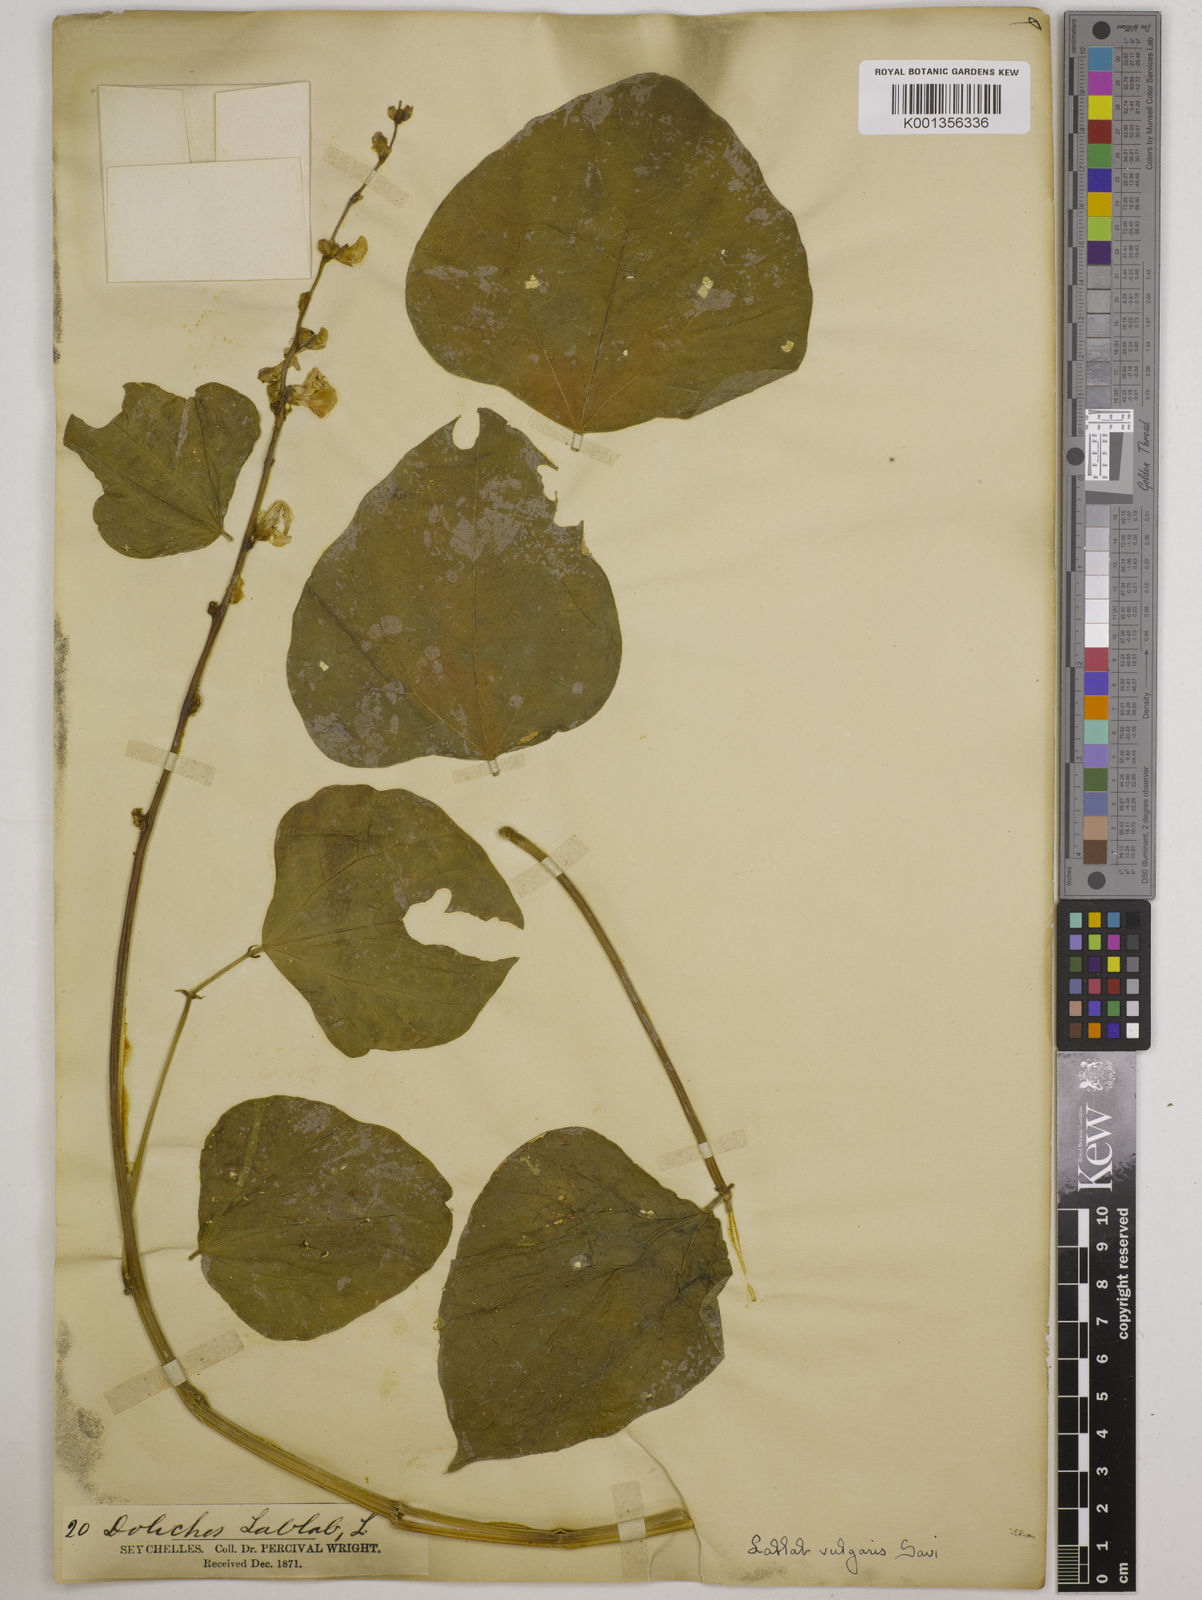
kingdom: Plantae
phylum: Tracheophyta
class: Magnoliopsida
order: Fabales
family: Fabaceae
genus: Lablab
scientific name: Lablab purpureus
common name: Lablab-bean
